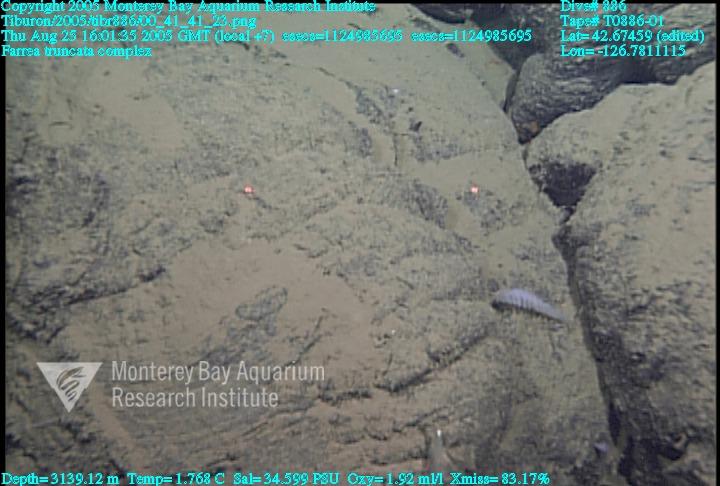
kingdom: Animalia
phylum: Porifera
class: Hexactinellida
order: Sceptrulophora
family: Farreidae
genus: Farrea
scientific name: Farrea truncata
